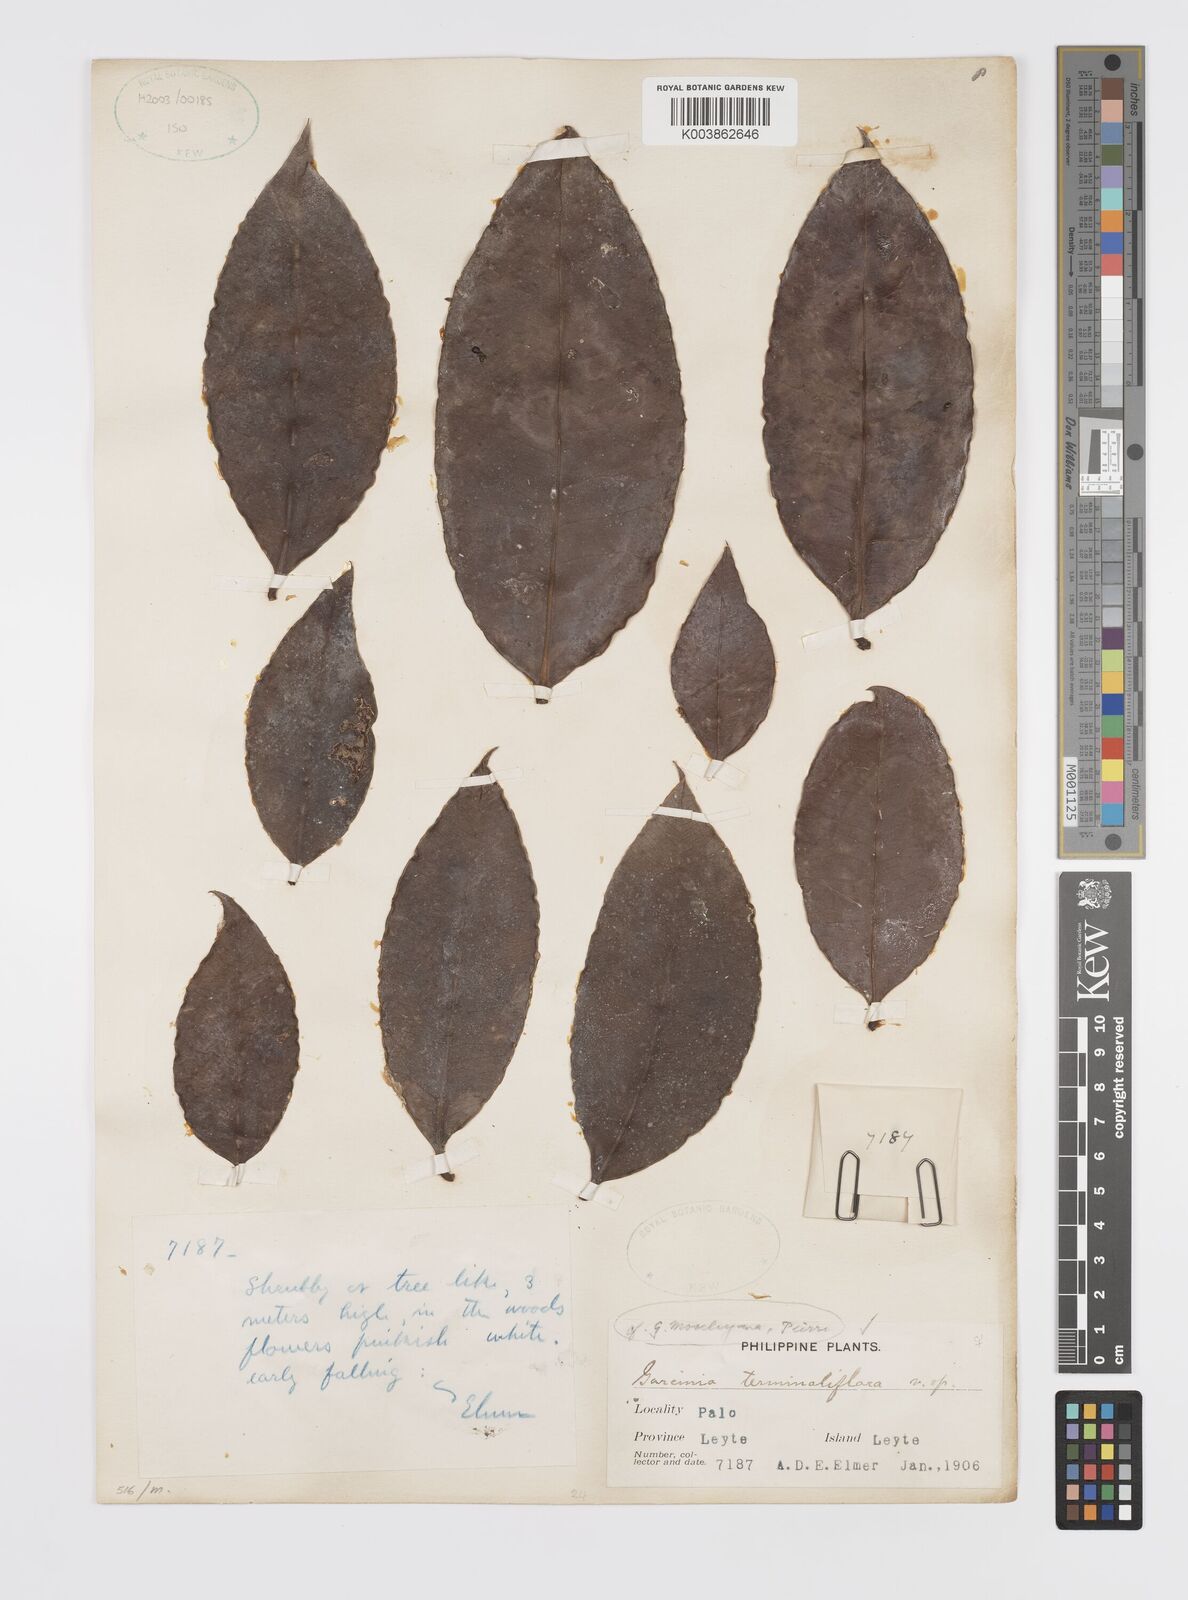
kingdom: Plantae
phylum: Tracheophyta
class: Magnoliopsida
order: Malpighiales
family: Clusiaceae
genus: Garcinia
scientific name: Garcinia
